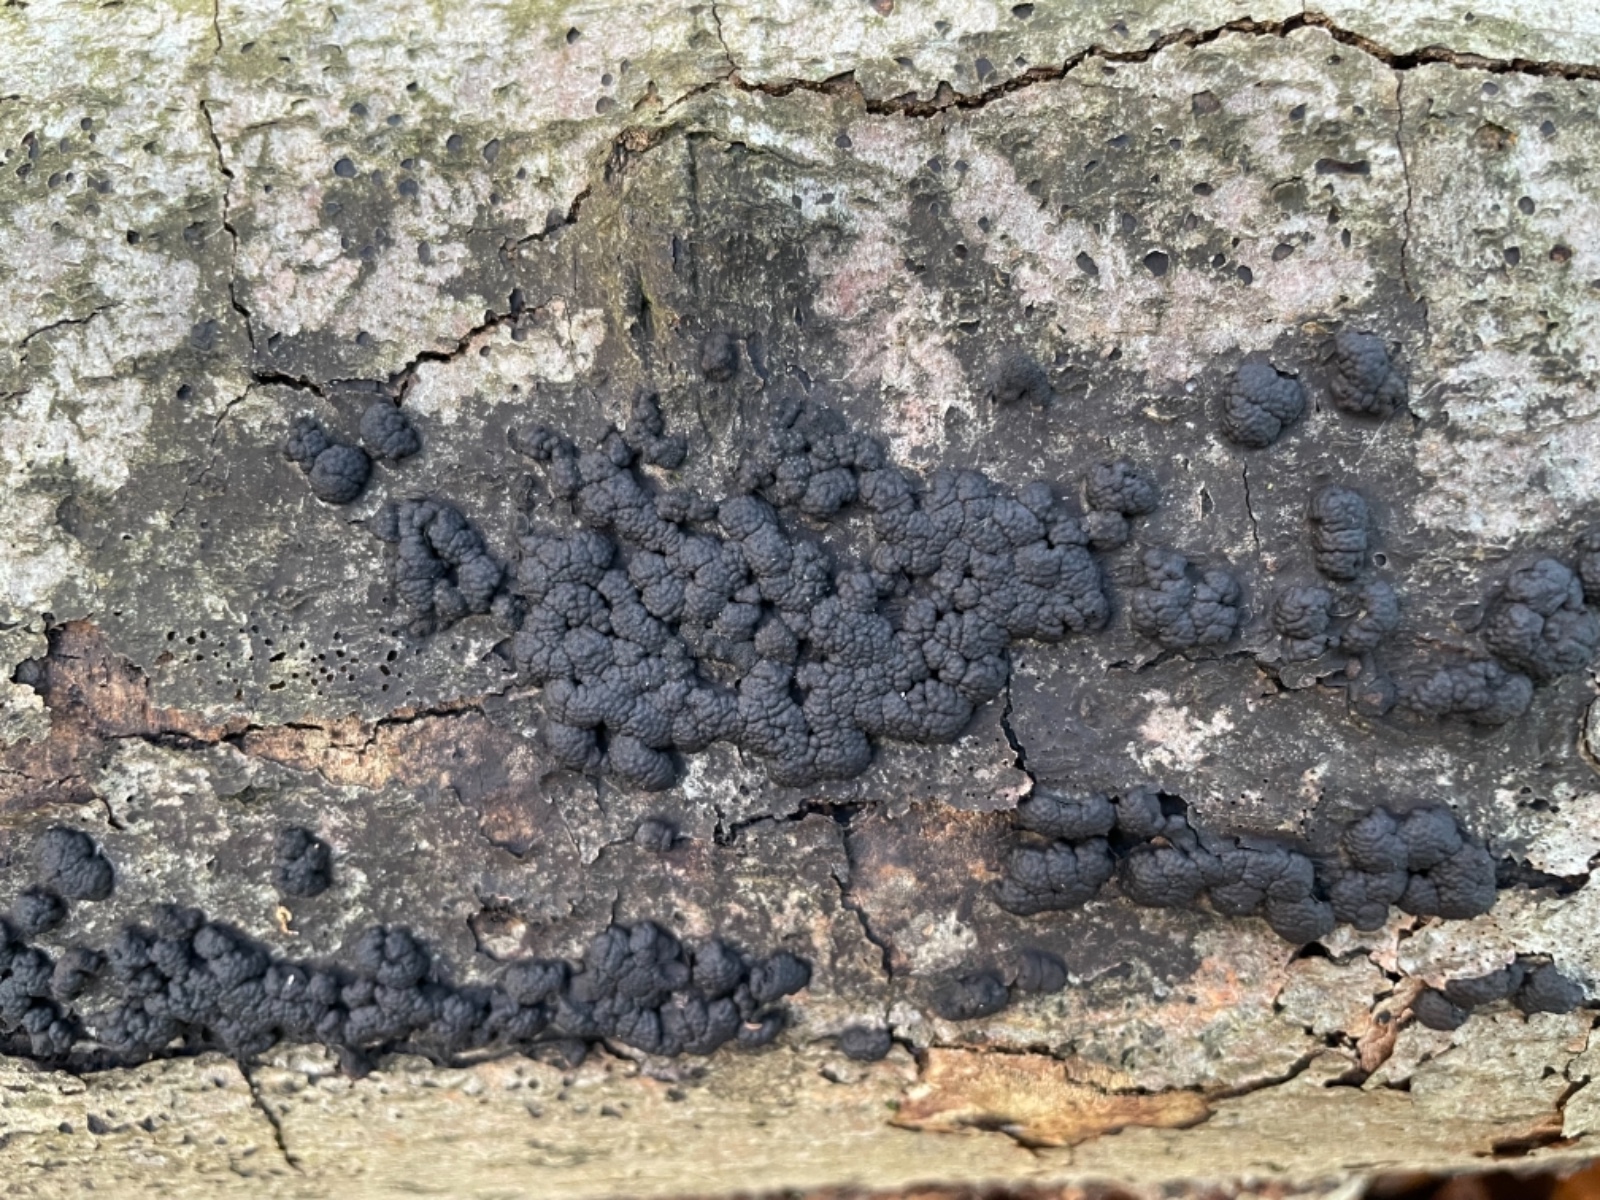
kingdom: Fungi
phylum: Ascomycota
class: Sordariomycetes
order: Xylariales
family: Hypoxylaceae
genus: Jackrogersella
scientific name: Jackrogersella cohaerens
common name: sammenflydende kulbær
